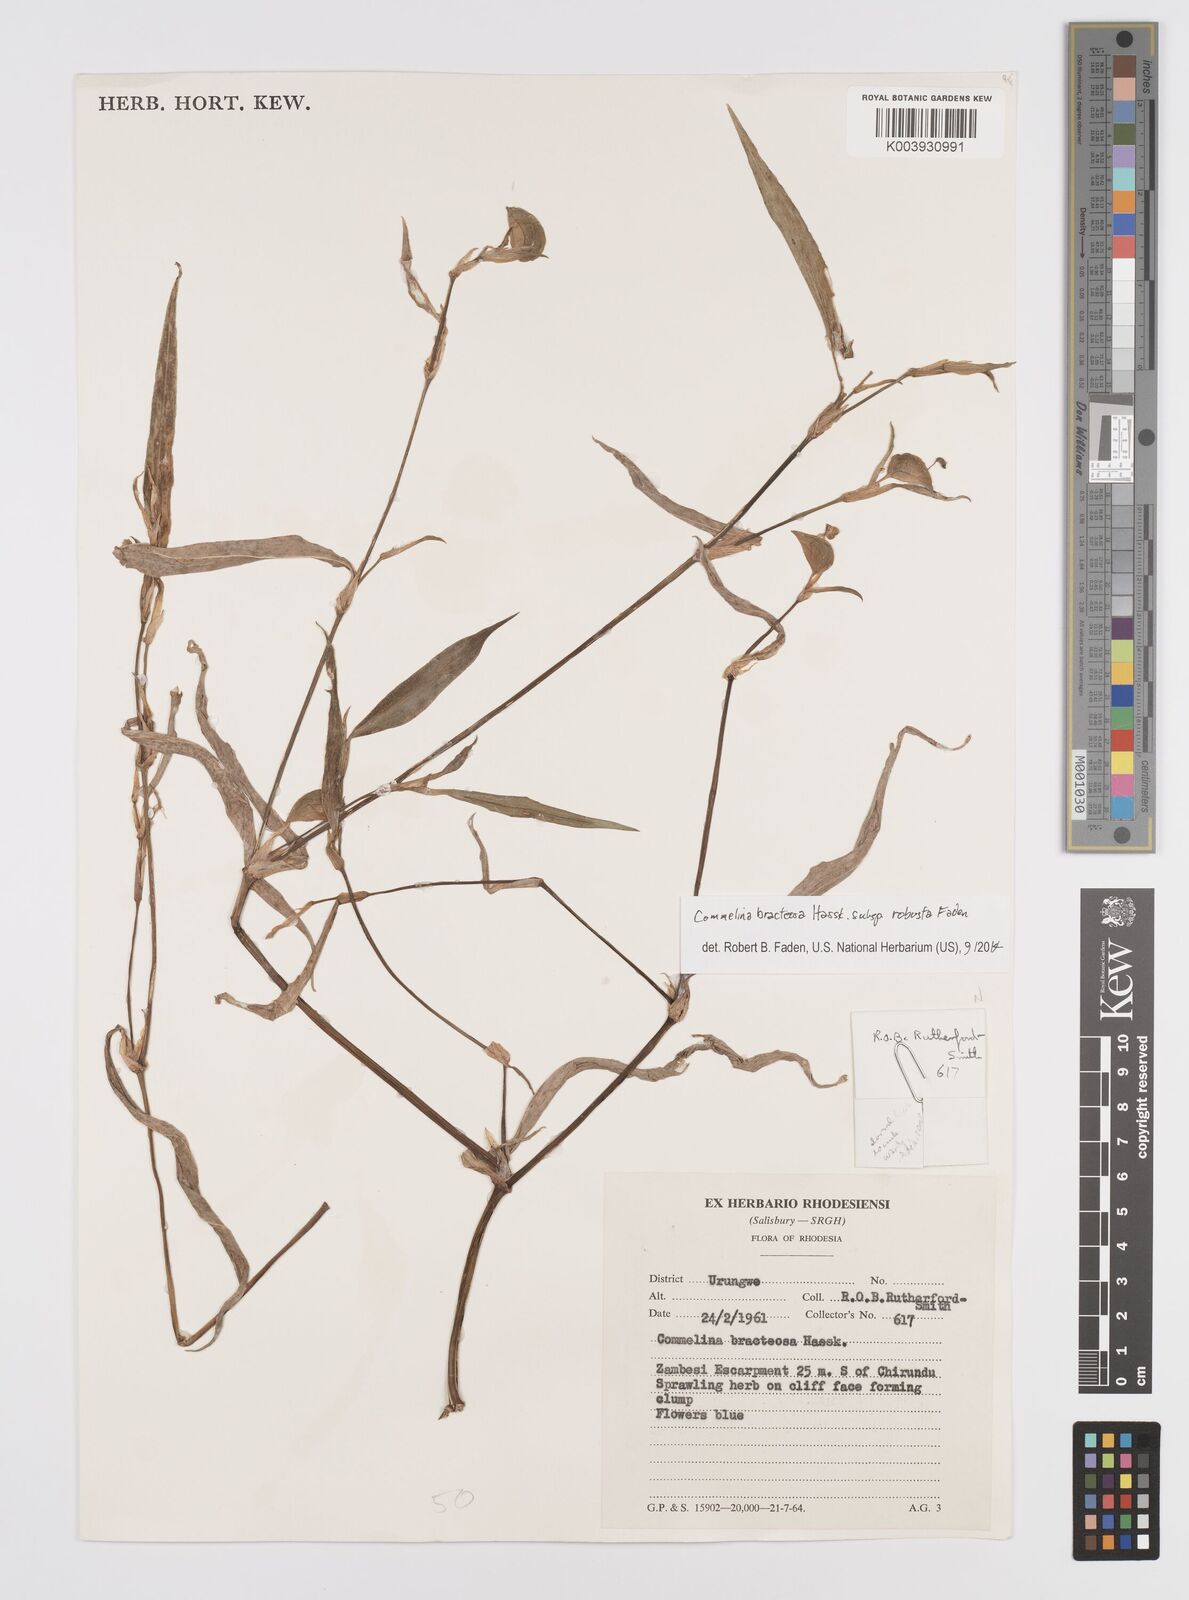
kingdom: Plantae
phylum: Tracheophyta
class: Liliopsida
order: Commelinales
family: Commelinaceae
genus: Commelina
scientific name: Commelina bracteosa
